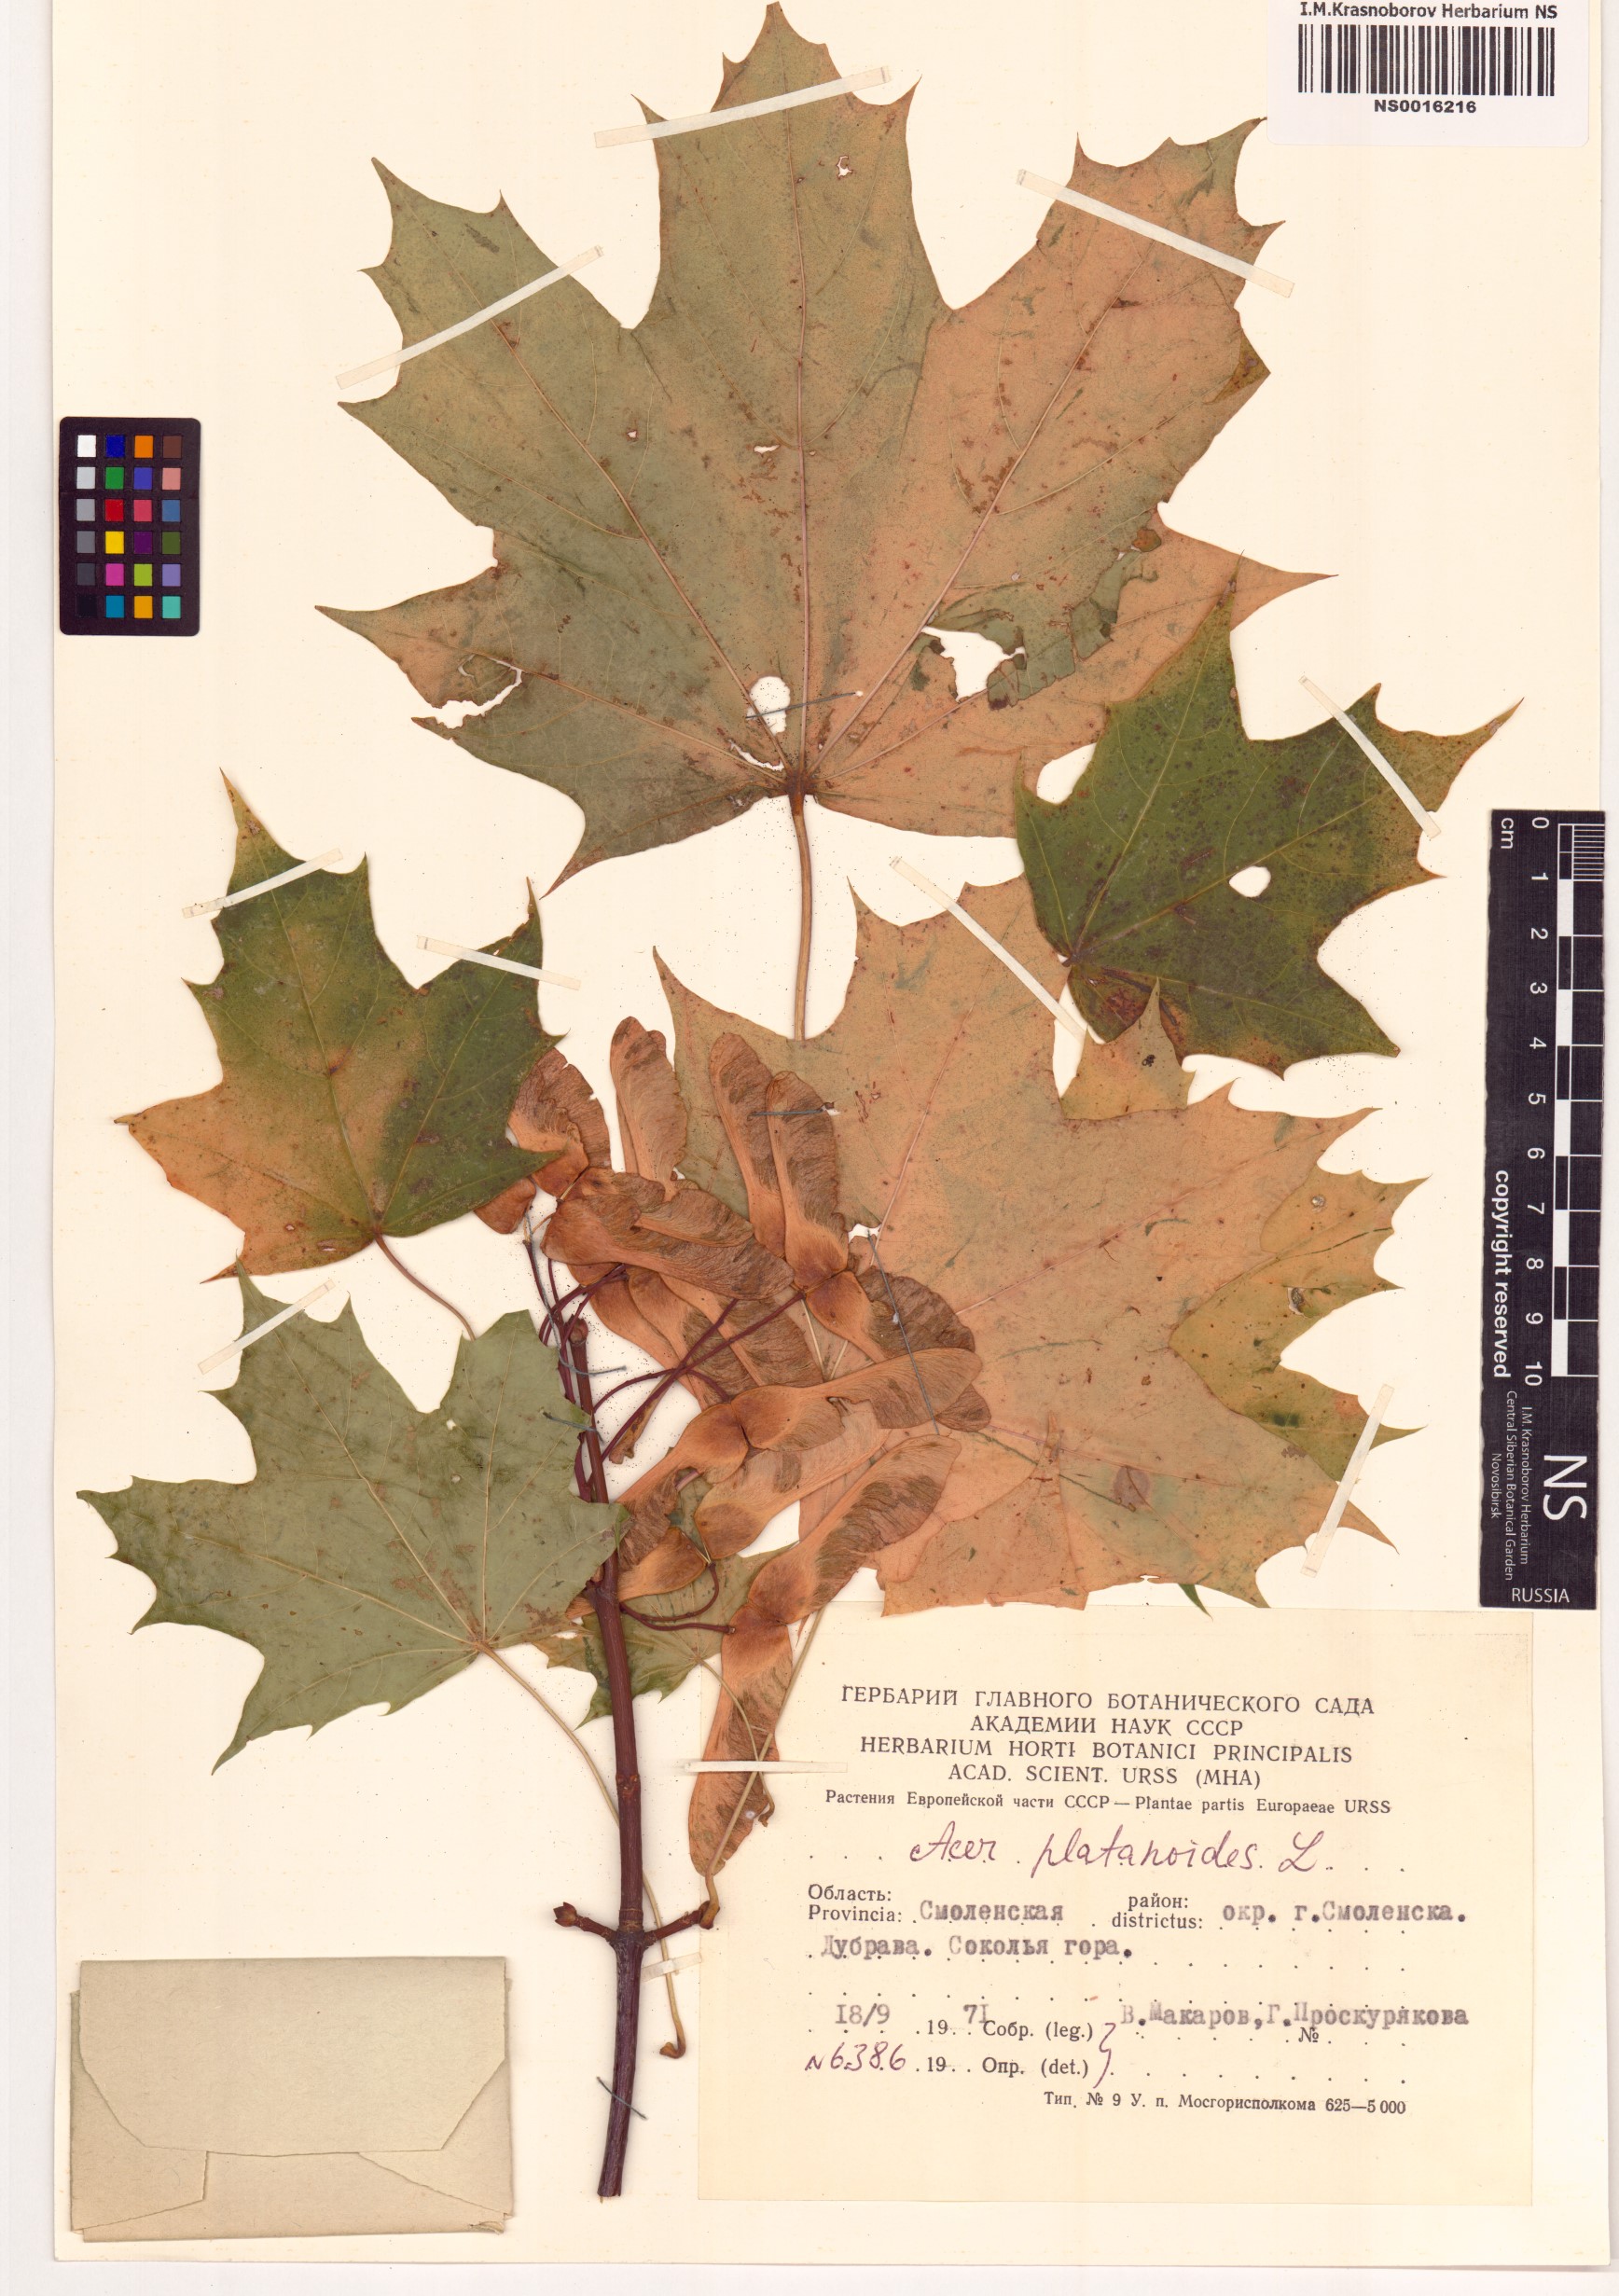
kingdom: Plantae
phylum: Tracheophyta
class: Magnoliopsida
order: Sapindales
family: Sapindaceae
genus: Acer
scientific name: Acer platanoides
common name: Norway maple
